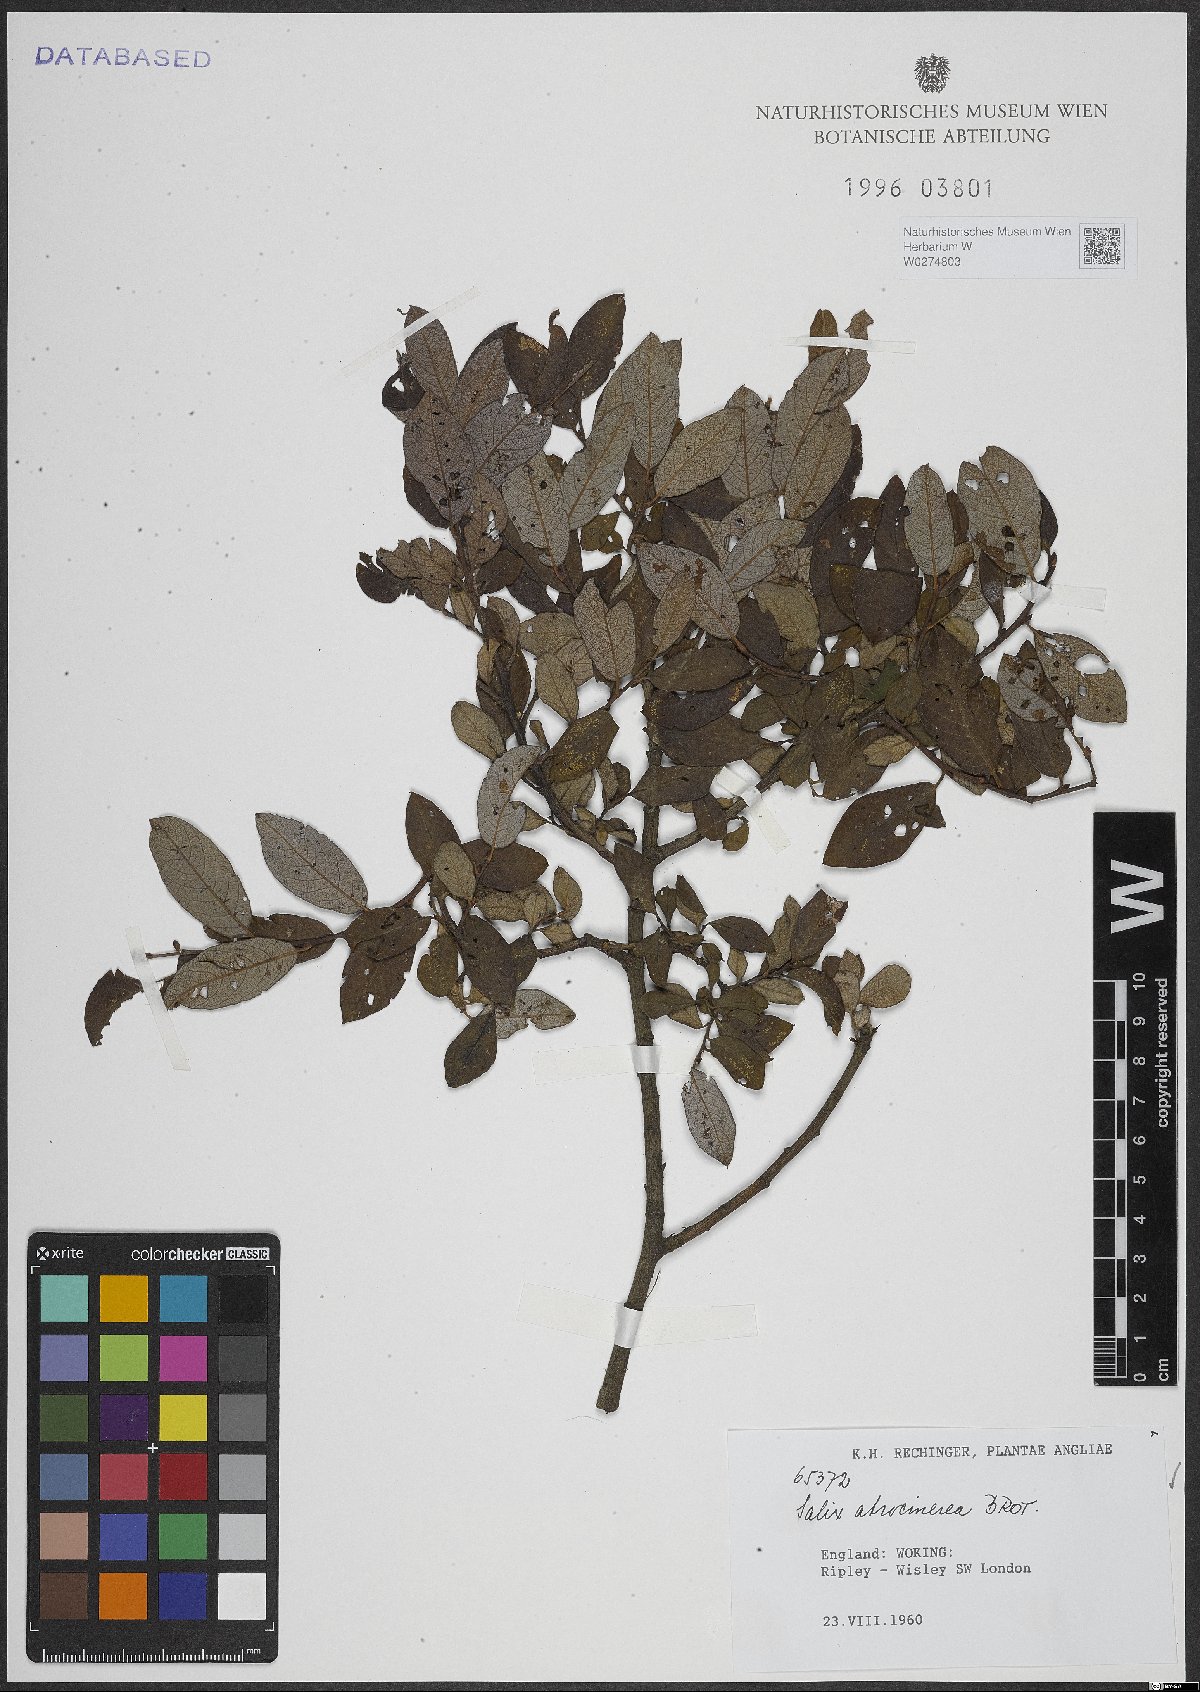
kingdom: Plantae
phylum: Tracheophyta
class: Magnoliopsida
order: Malpighiales
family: Salicaceae
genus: Salix
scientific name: Salix atrocinerea
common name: Rusty willow
